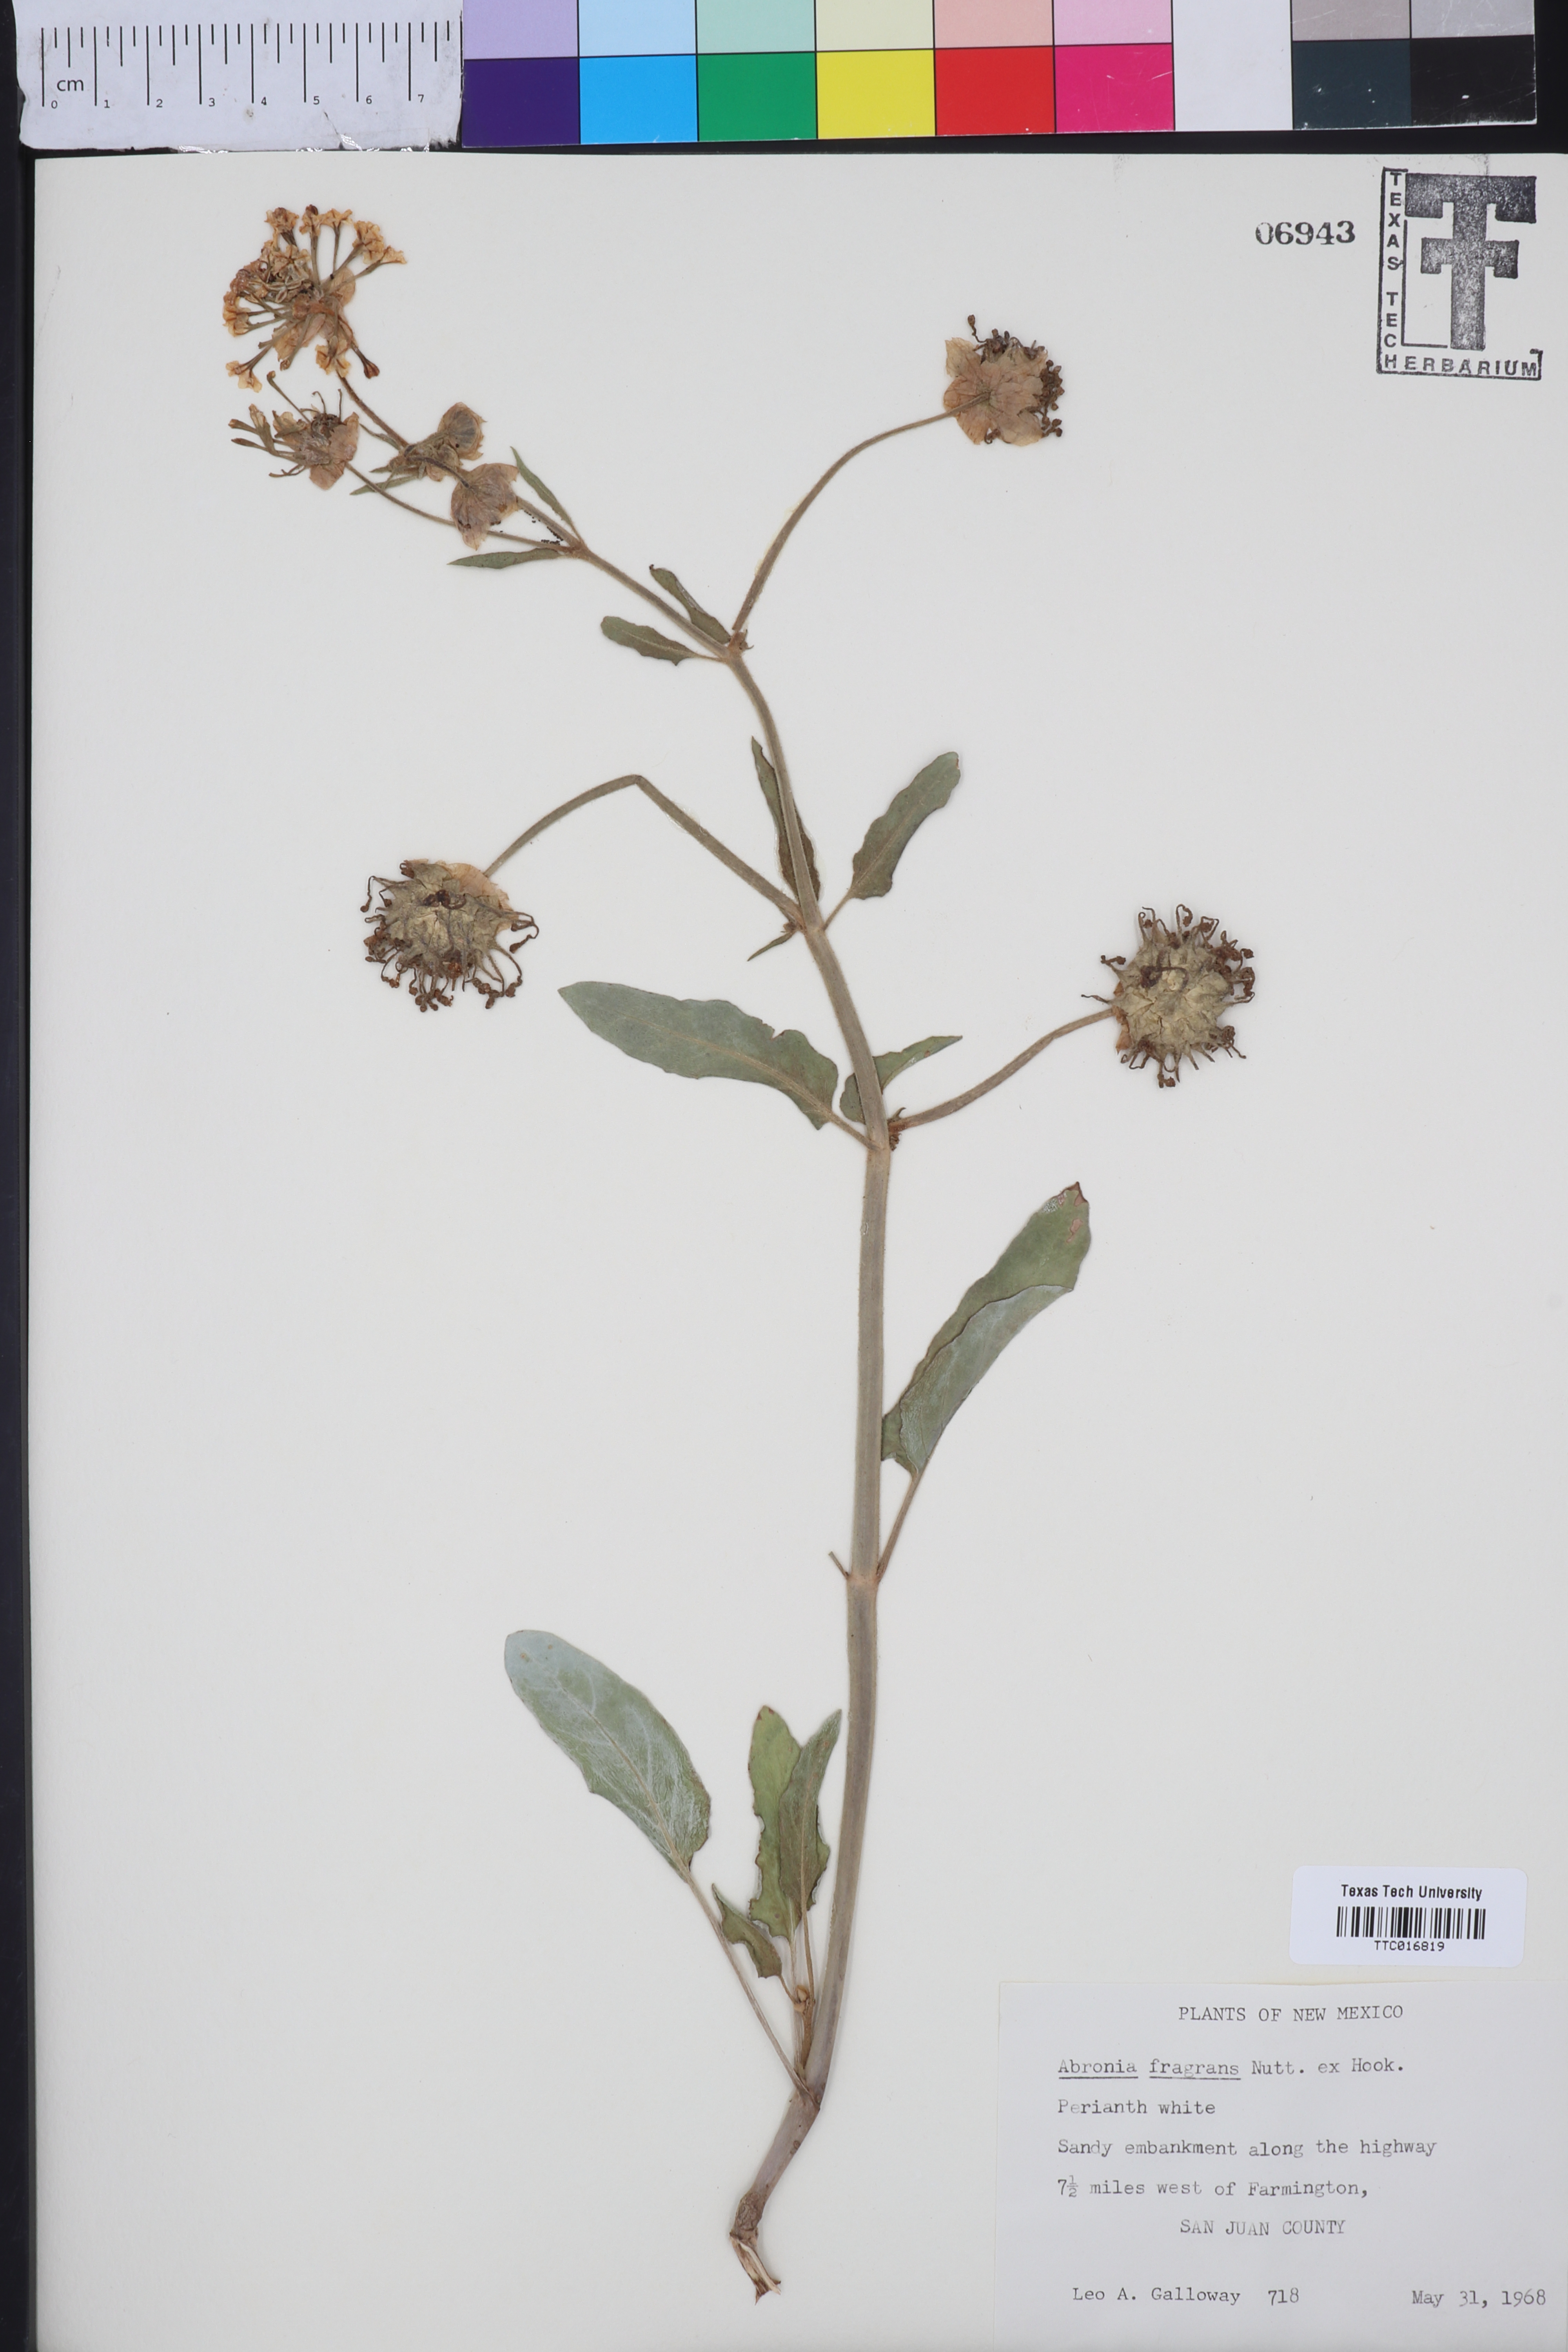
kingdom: Plantae
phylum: Tracheophyta
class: Magnoliopsida
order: Caryophyllales
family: Nyctaginaceae
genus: Abronia
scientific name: Abronia fragrans
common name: Fragrant sand-verbena
